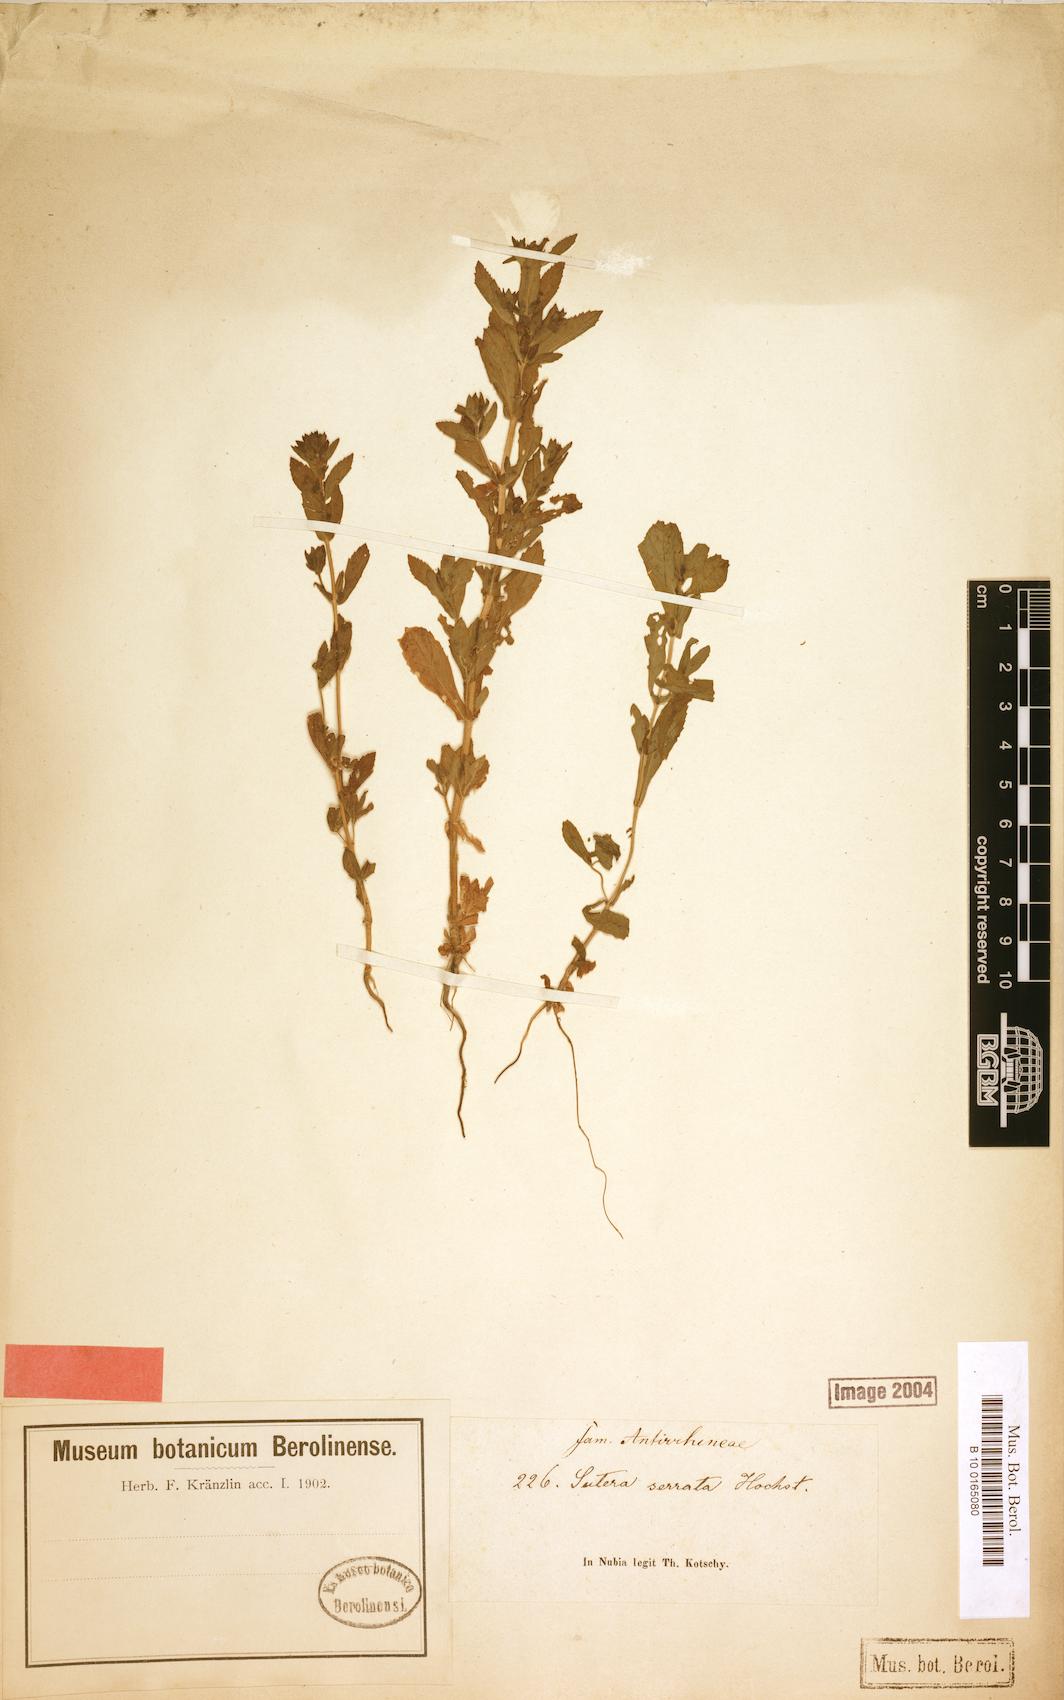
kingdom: Plantae
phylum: Tracheophyta
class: Magnoliopsida
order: Lamiales
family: Plantaginaceae
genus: Stemodia
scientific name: Stemodia serrata
